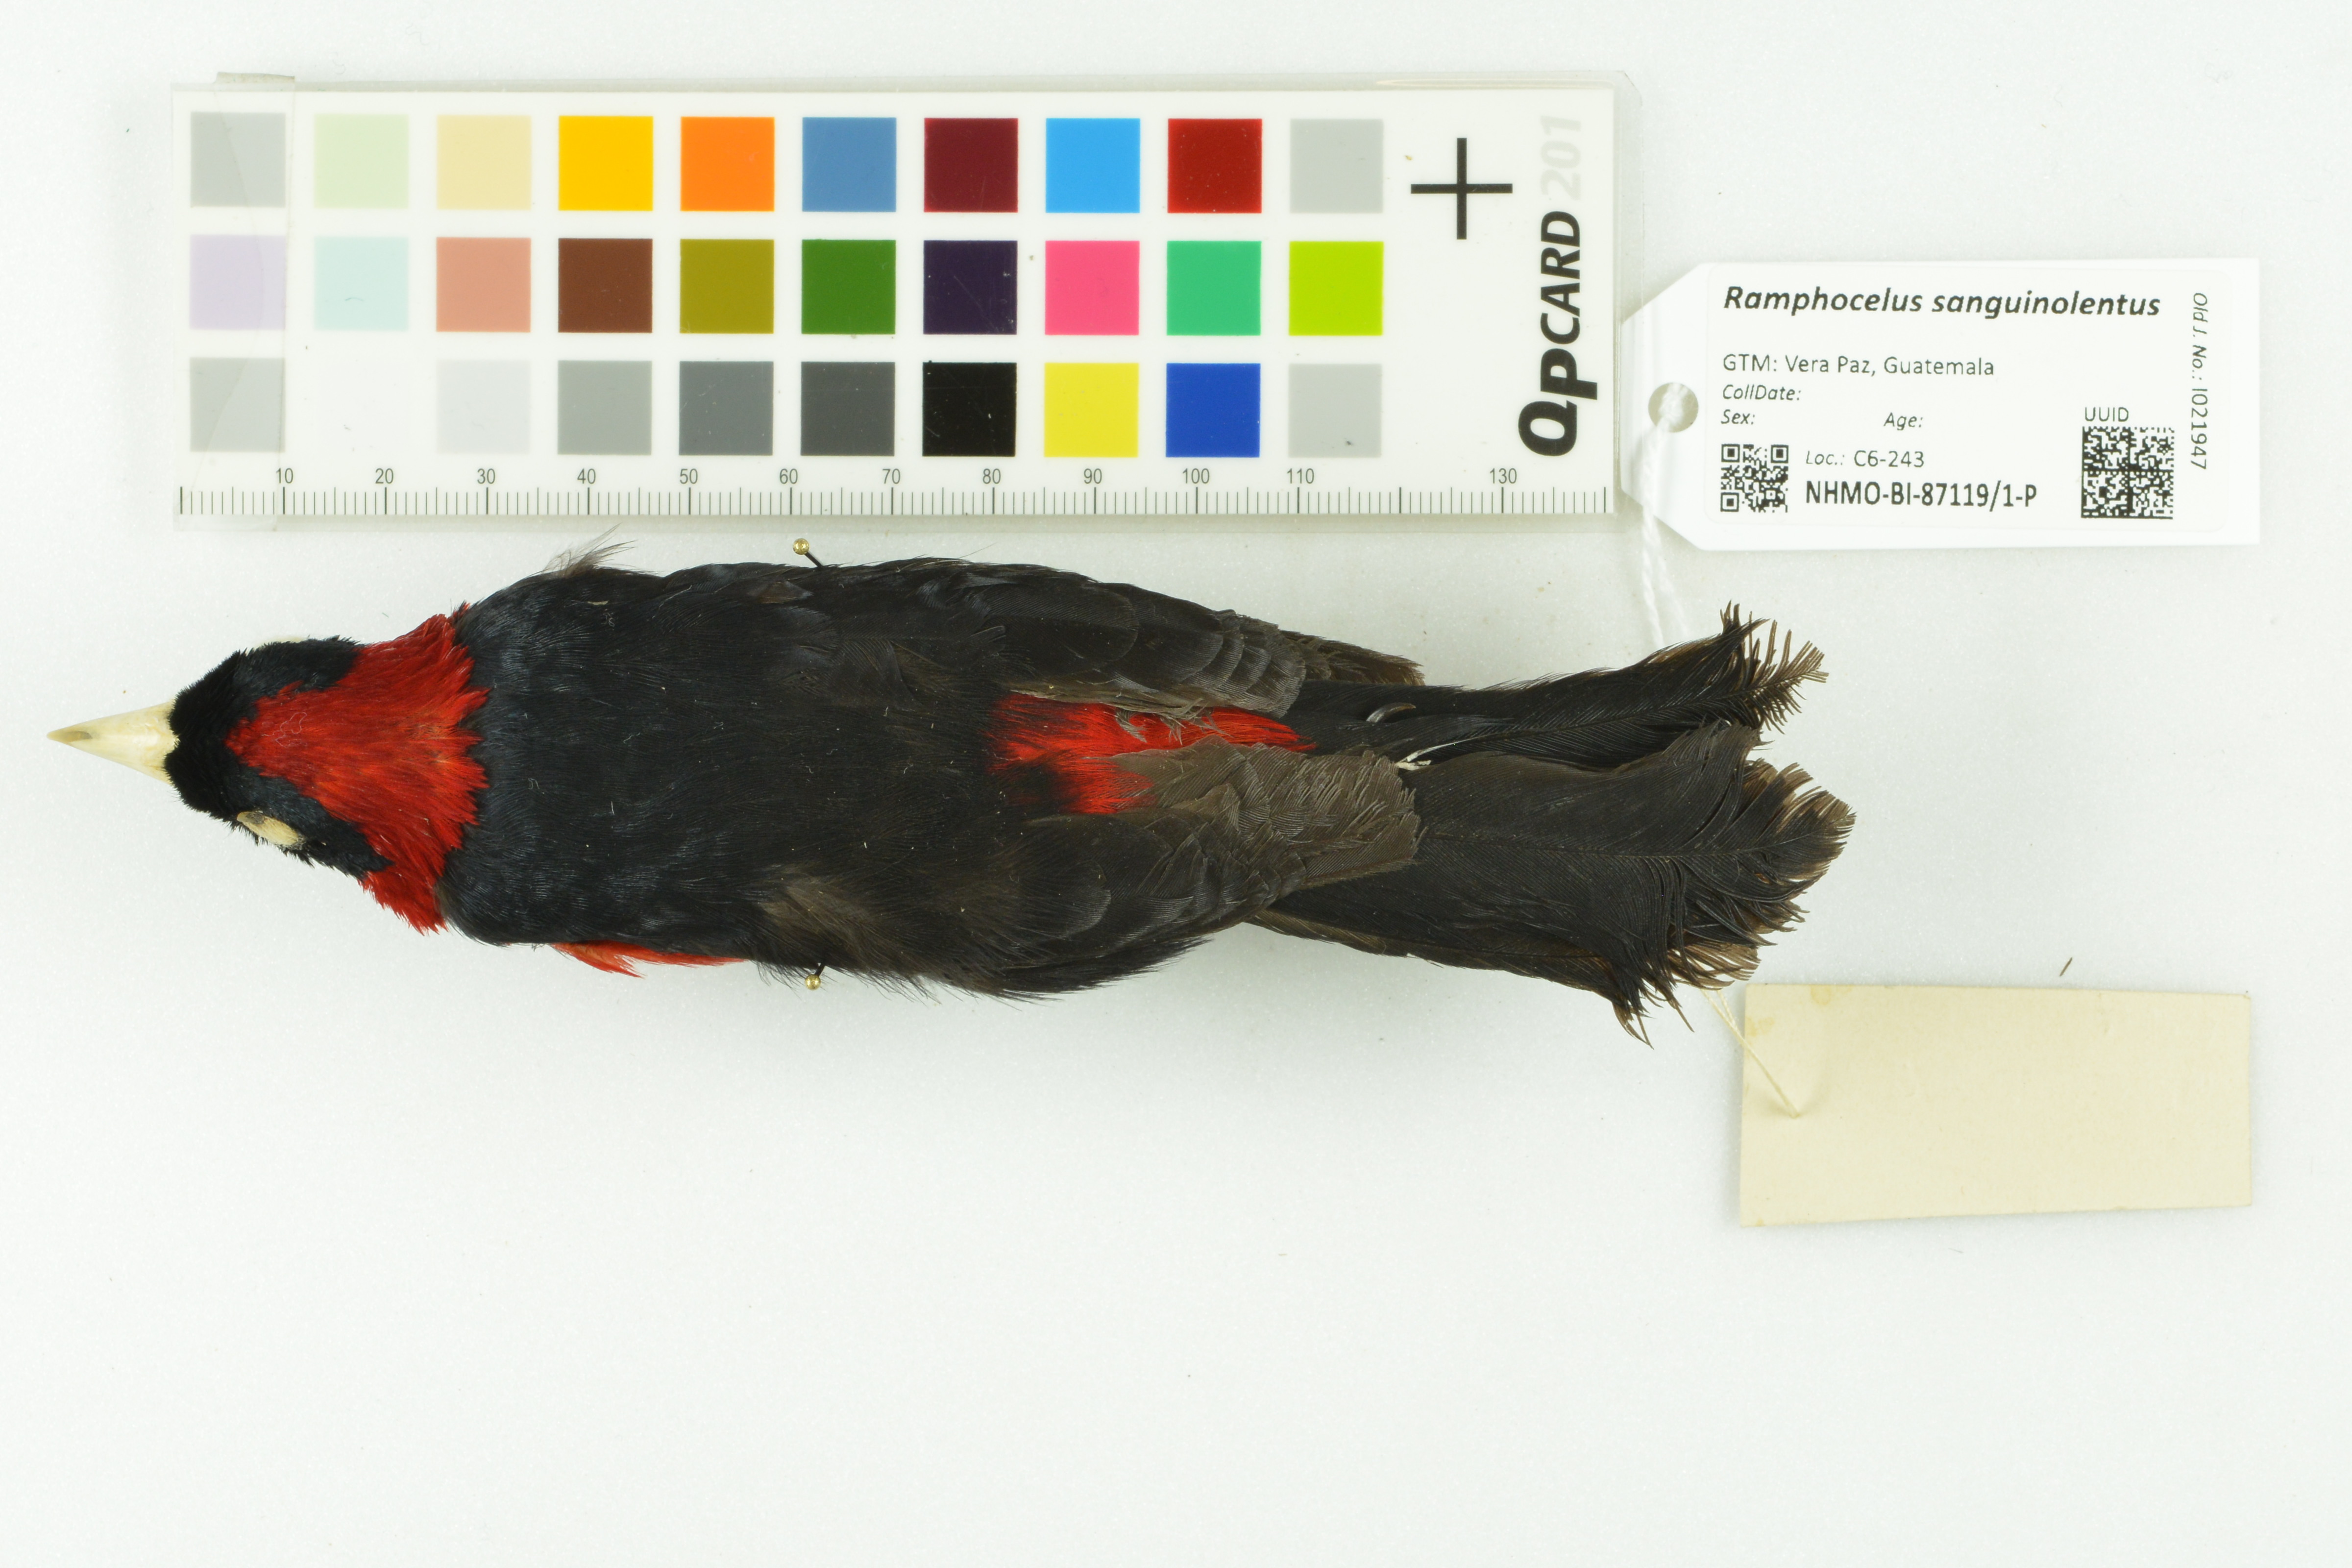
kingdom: Animalia
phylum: Chordata
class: Aves
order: Passeriformes
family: Thraupidae
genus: Ramphocelus
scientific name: Ramphocelus sanguinolentus
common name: Crimson-collared tanager
